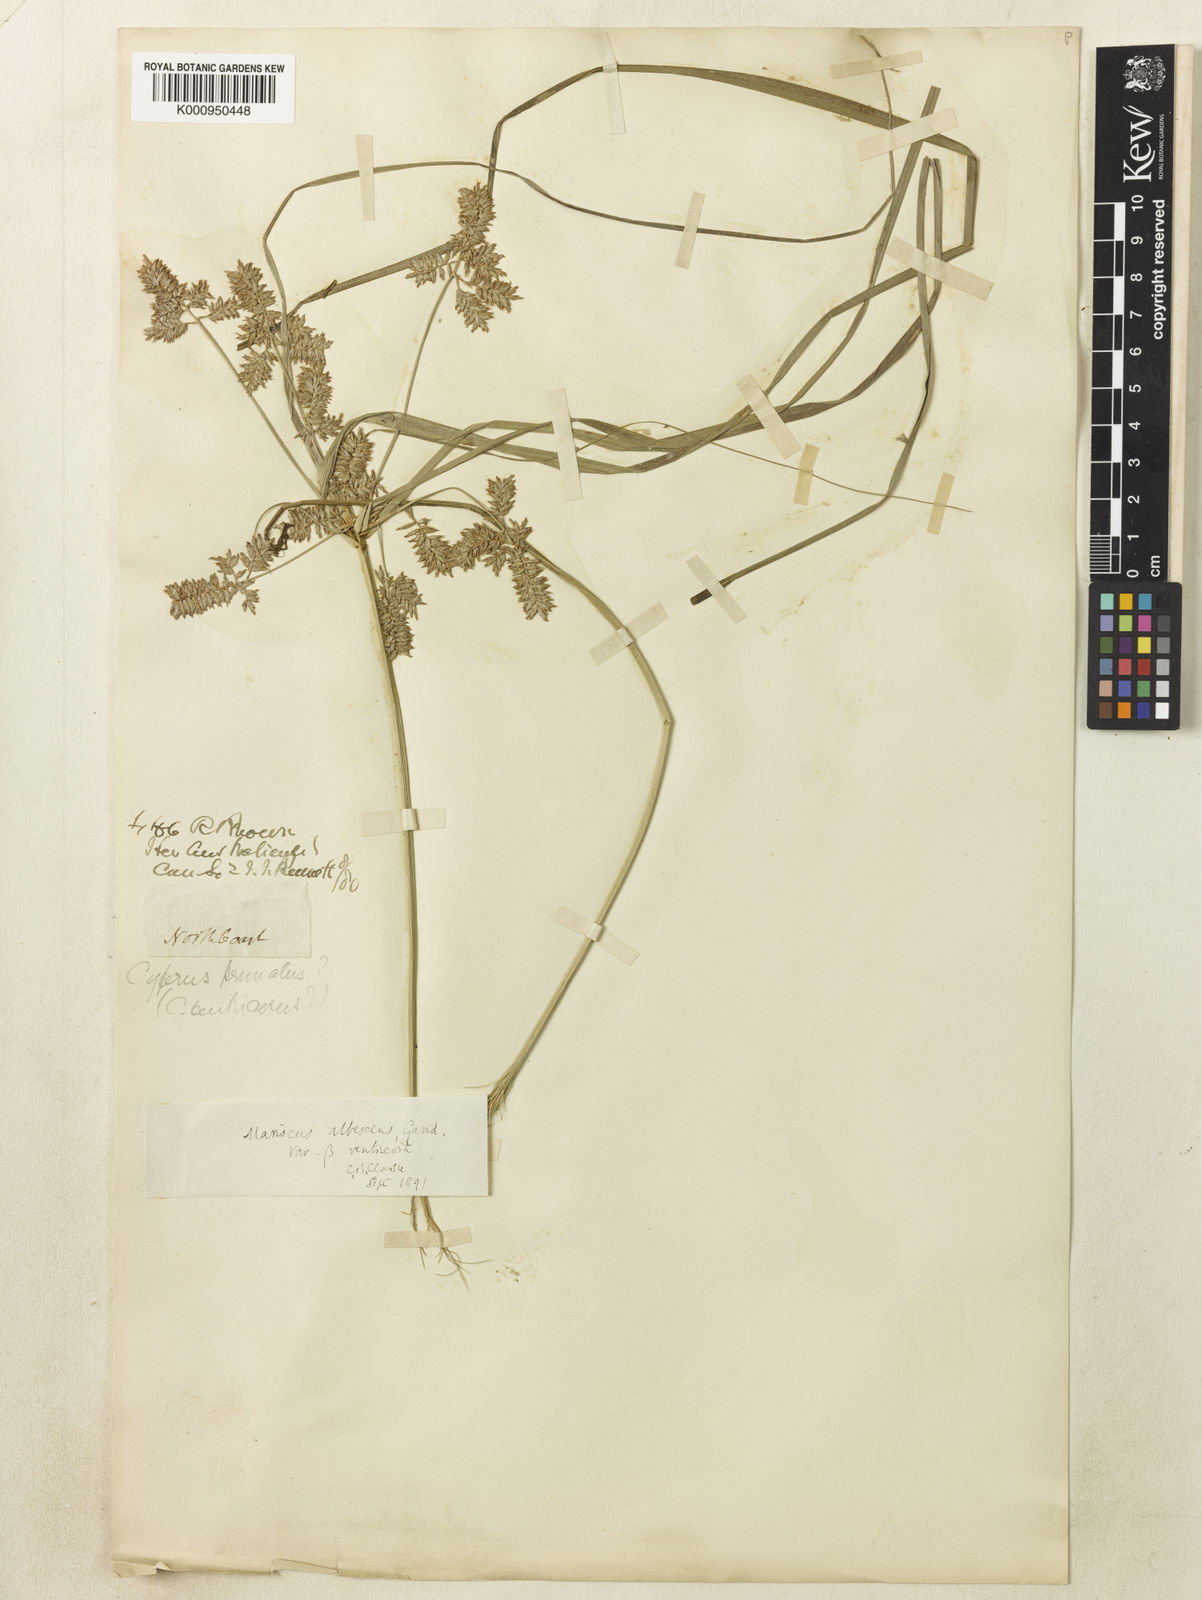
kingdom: Plantae
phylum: Tracheophyta
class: Liliopsida
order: Poales
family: Cyperaceae
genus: Cyperus
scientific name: Cyperus javanicus
